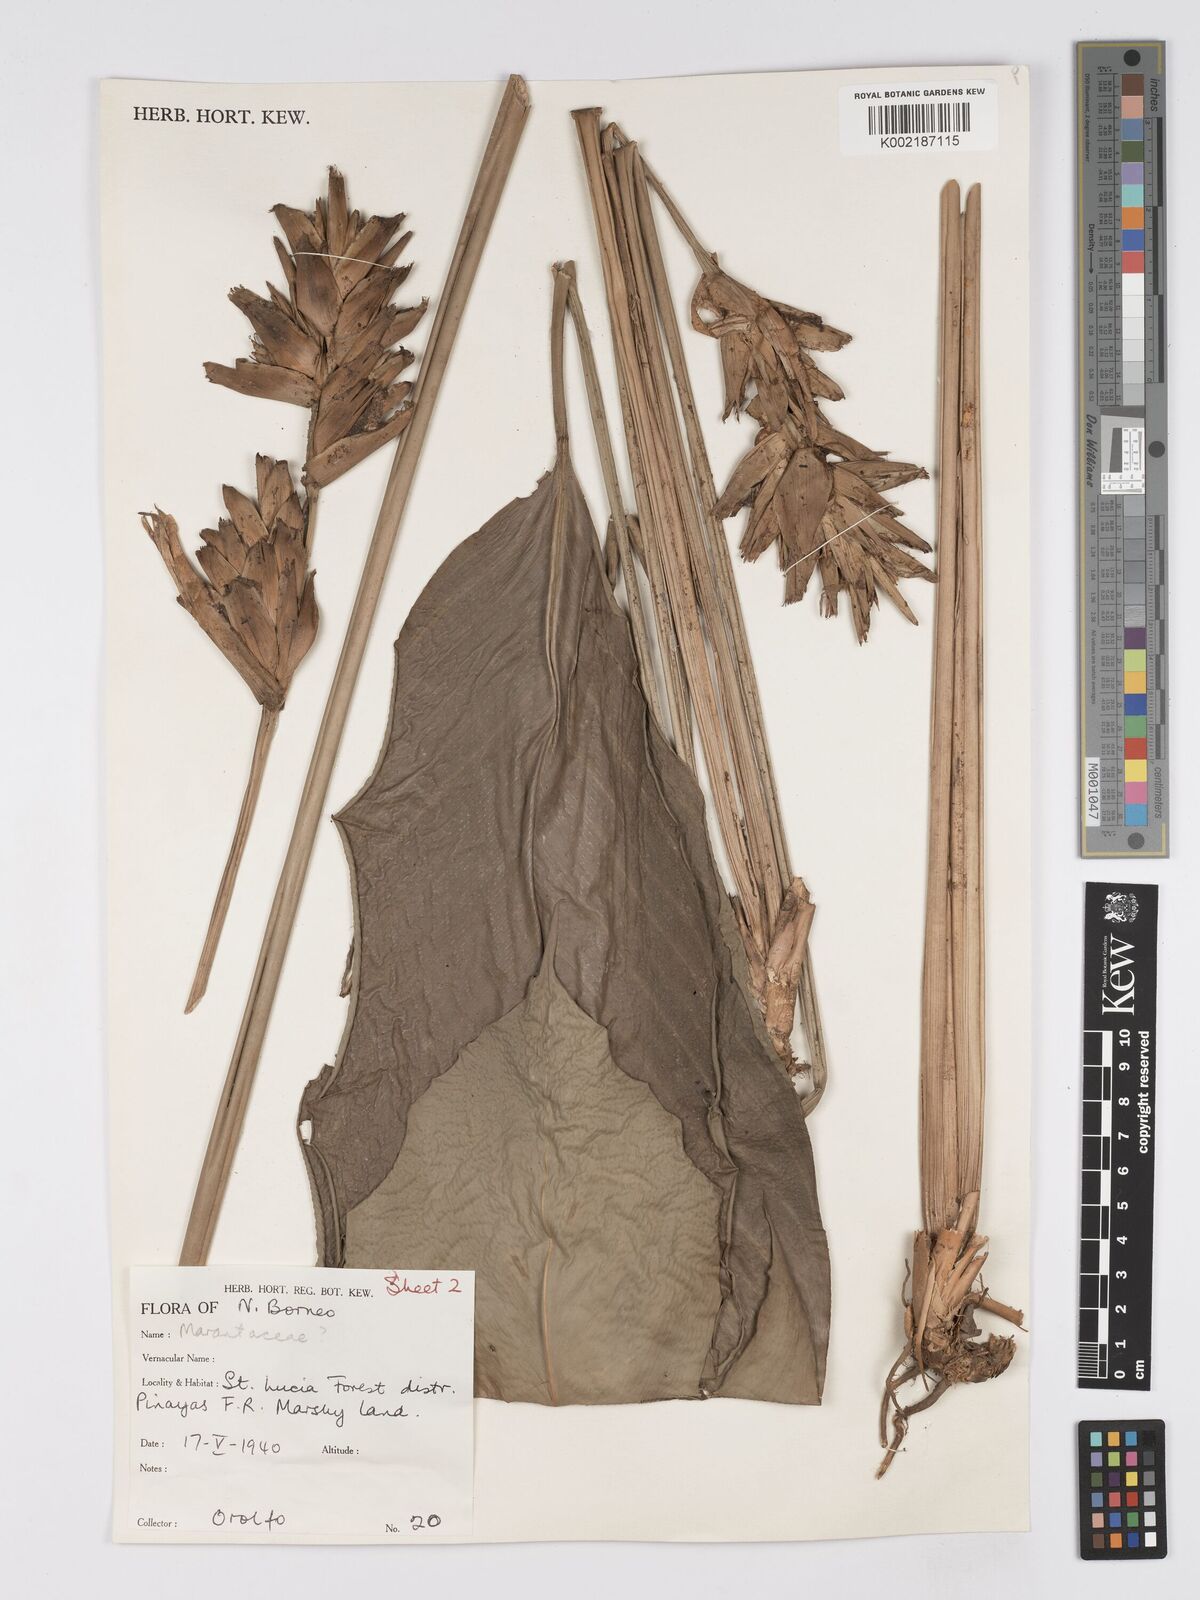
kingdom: Plantae
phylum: Tracheophyta
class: Liliopsida
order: Zingiberales
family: Marantaceae
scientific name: Marantaceae
